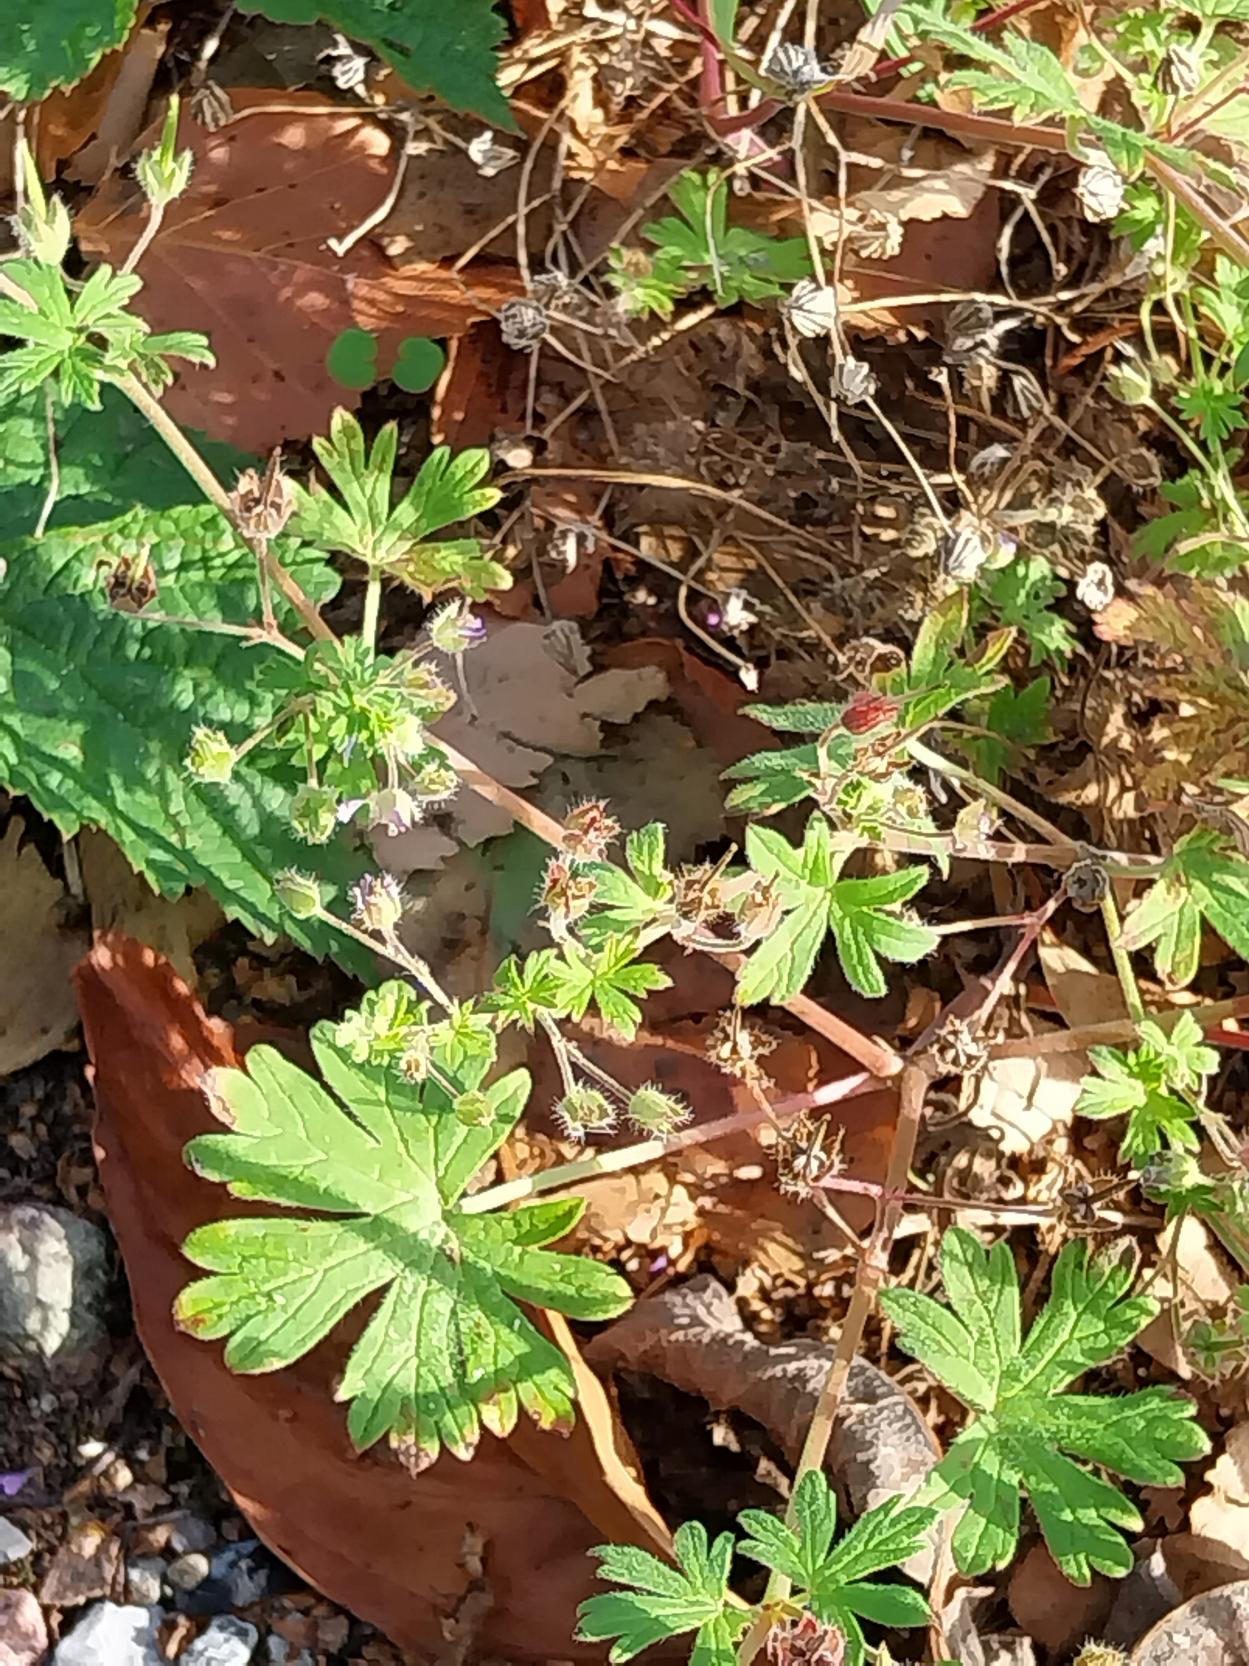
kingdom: Plantae
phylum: Tracheophyta
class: Magnoliopsida
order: Geraniales
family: Geraniaceae
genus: Geranium
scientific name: Geranium pusillum
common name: Liden storkenæb
